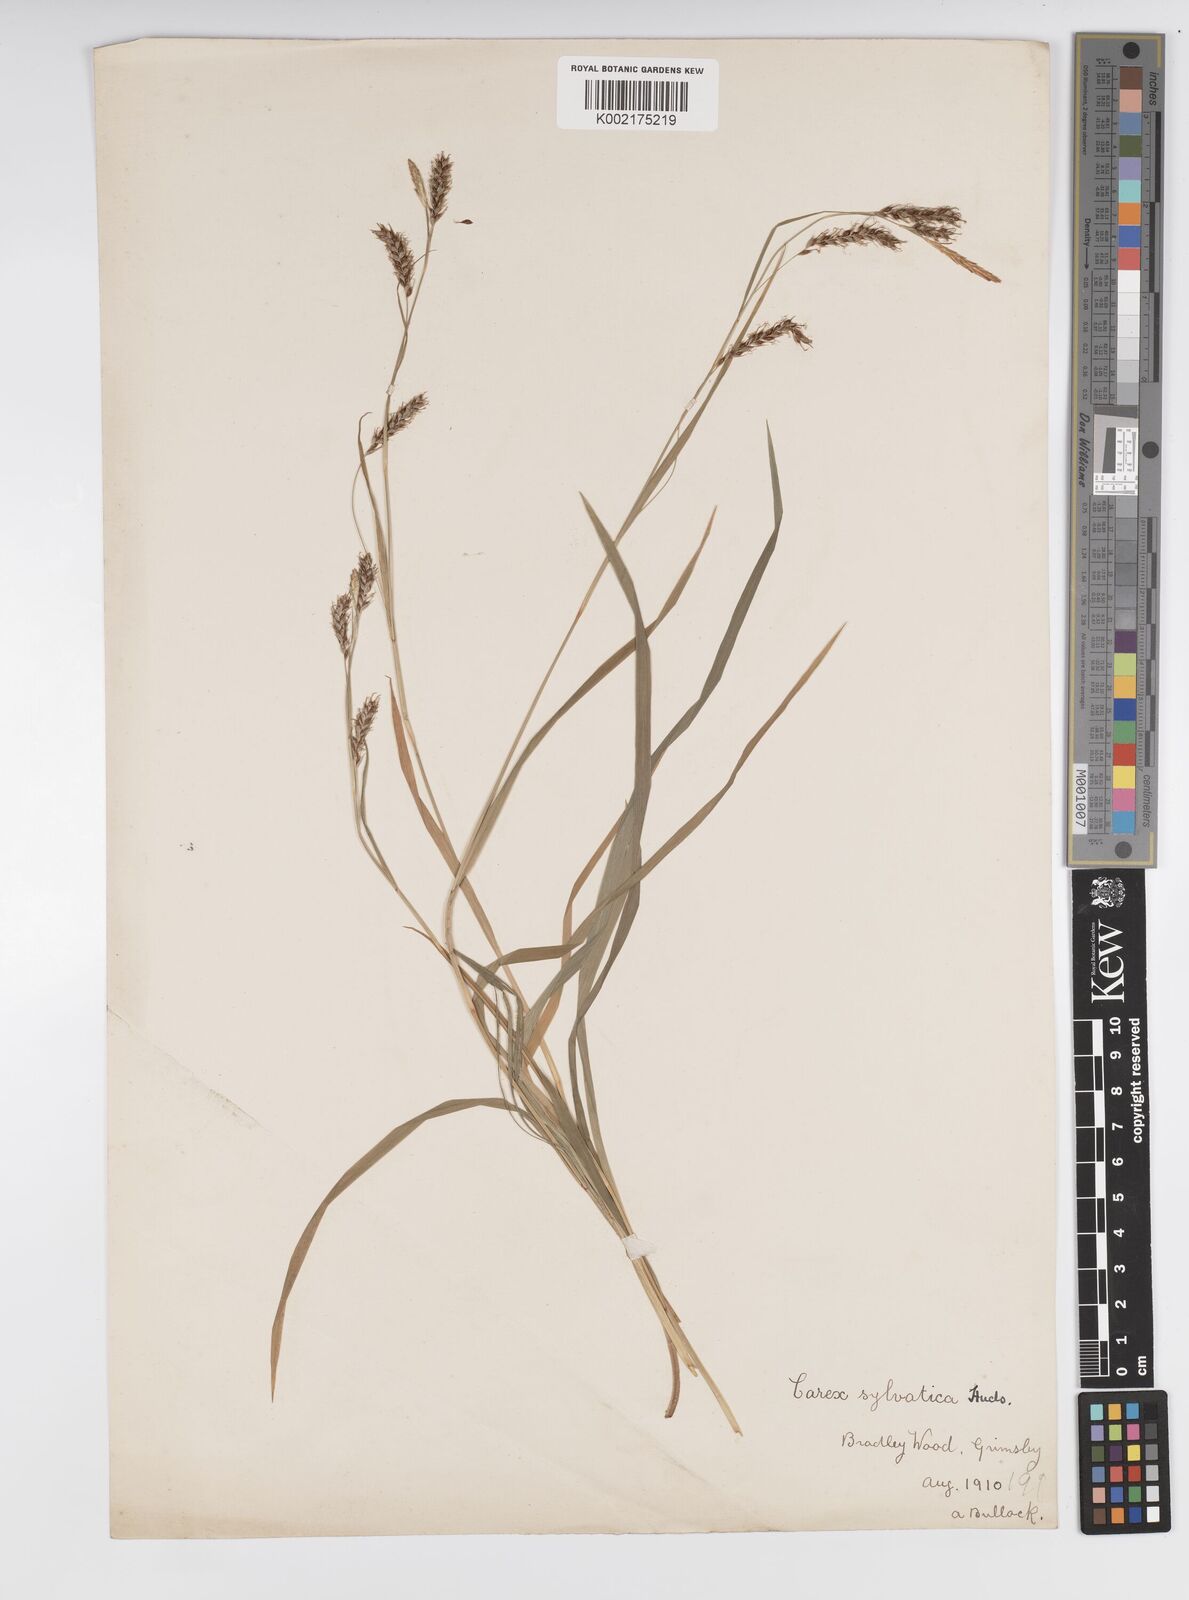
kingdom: Plantae
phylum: Tracheophyta
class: Liliopsida
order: Poales
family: Cyperaceae
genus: Carex
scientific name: Carex sylvatica
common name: Wood-sedge
